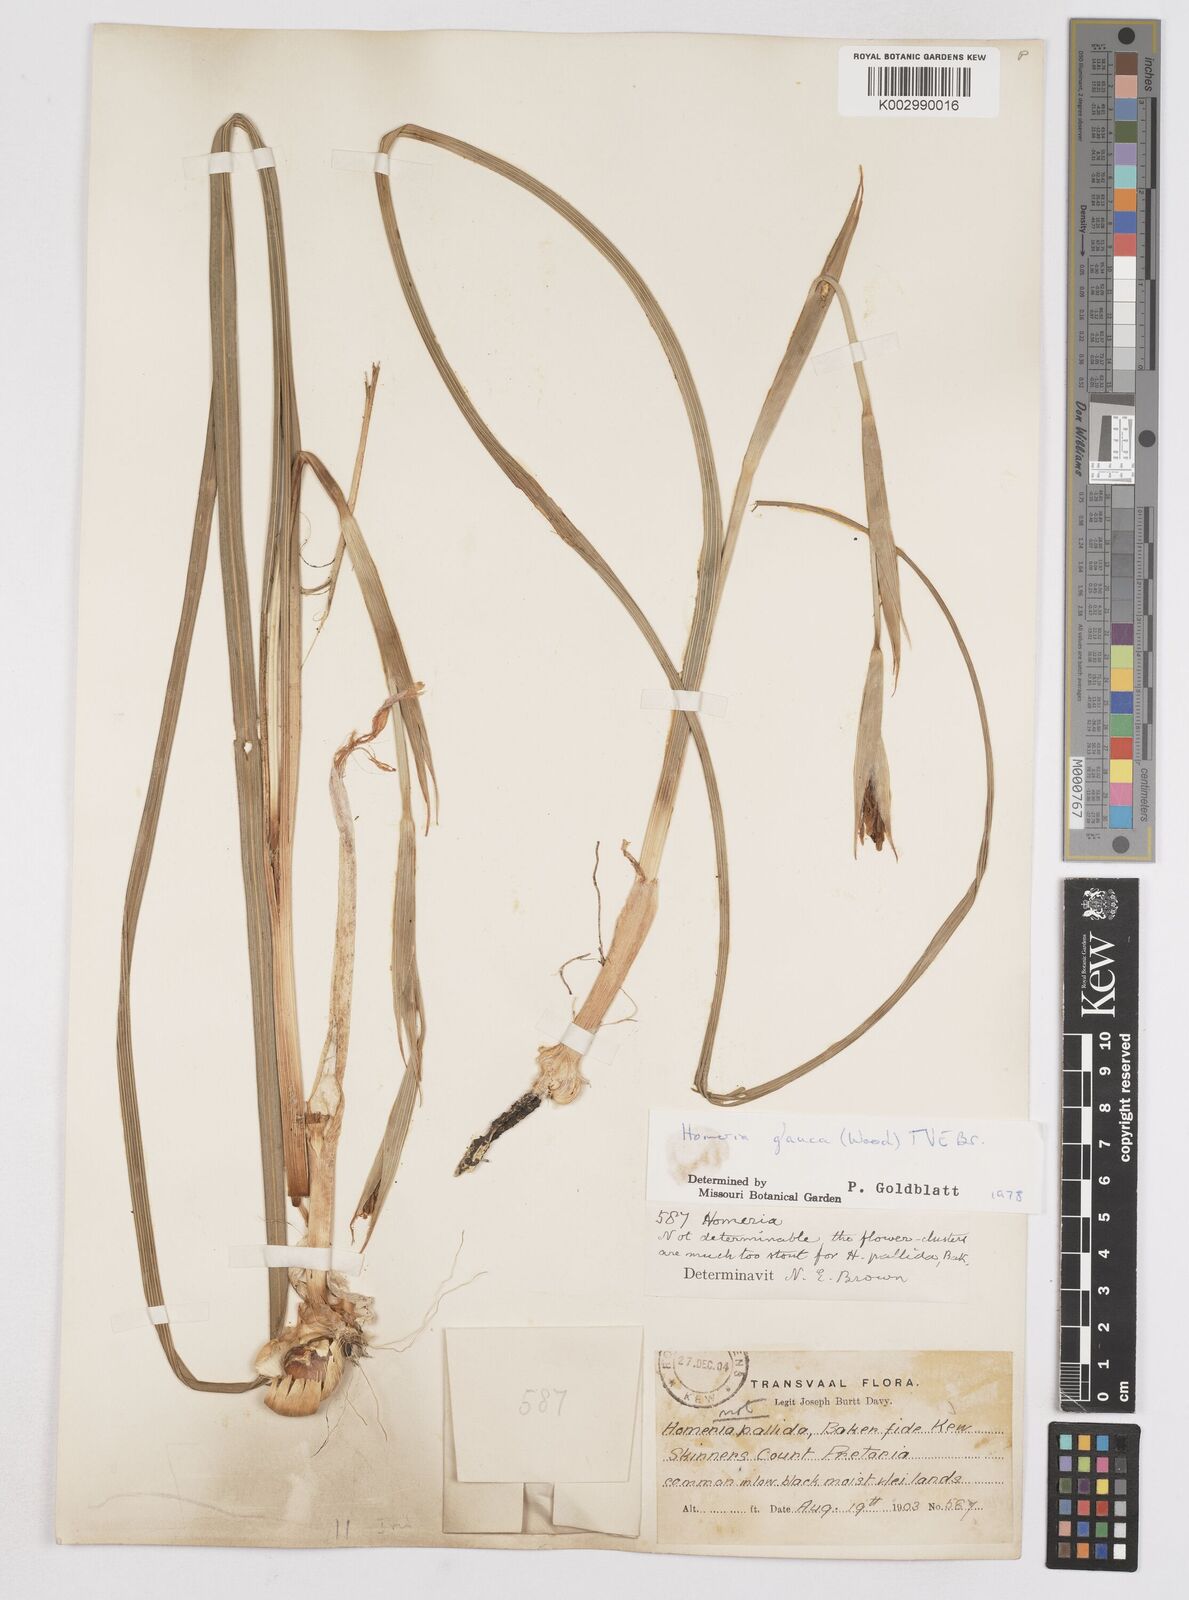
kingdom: Plantae
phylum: Tracheophyta
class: Liliopsida
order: Asparagales
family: Iridaceae
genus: Moraea
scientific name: Moraea pallida
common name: Yellow tulp
